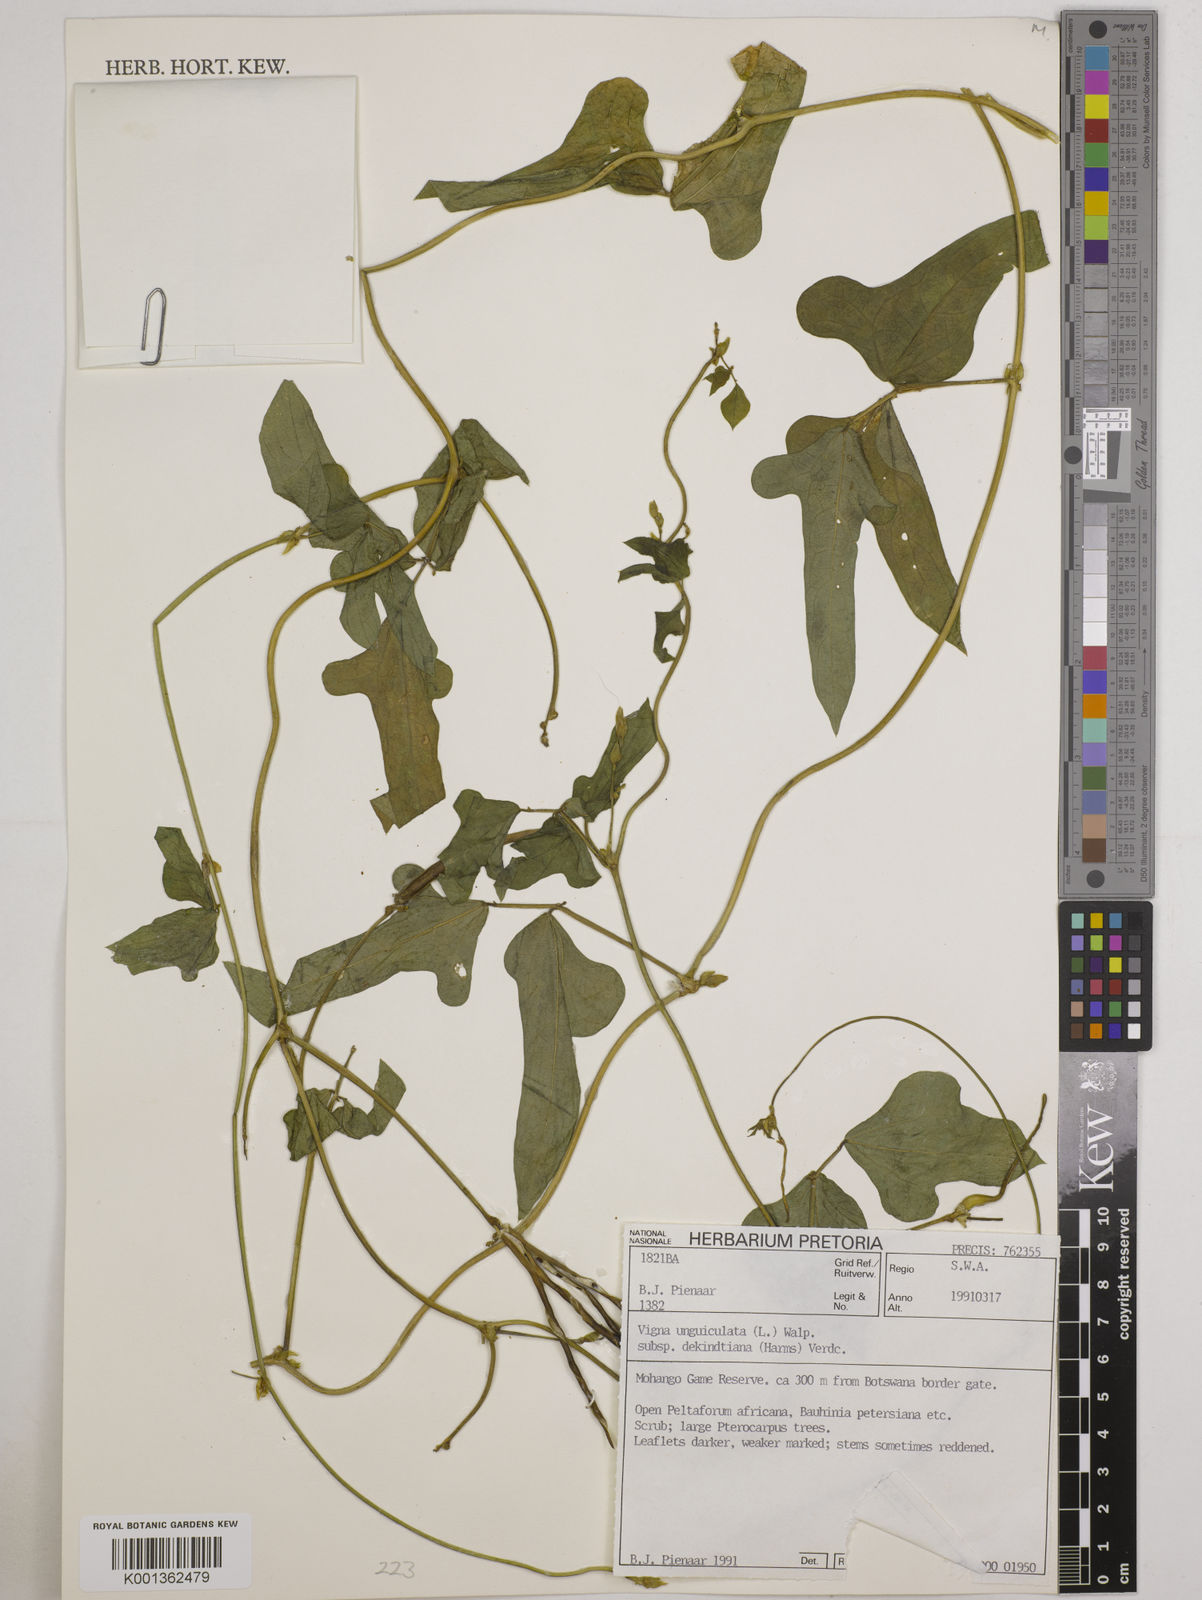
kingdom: Plantae
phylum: Tracheophyta
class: Magnoliopsida
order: Fabales
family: Fabaceae
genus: Vigna
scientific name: Vigna
